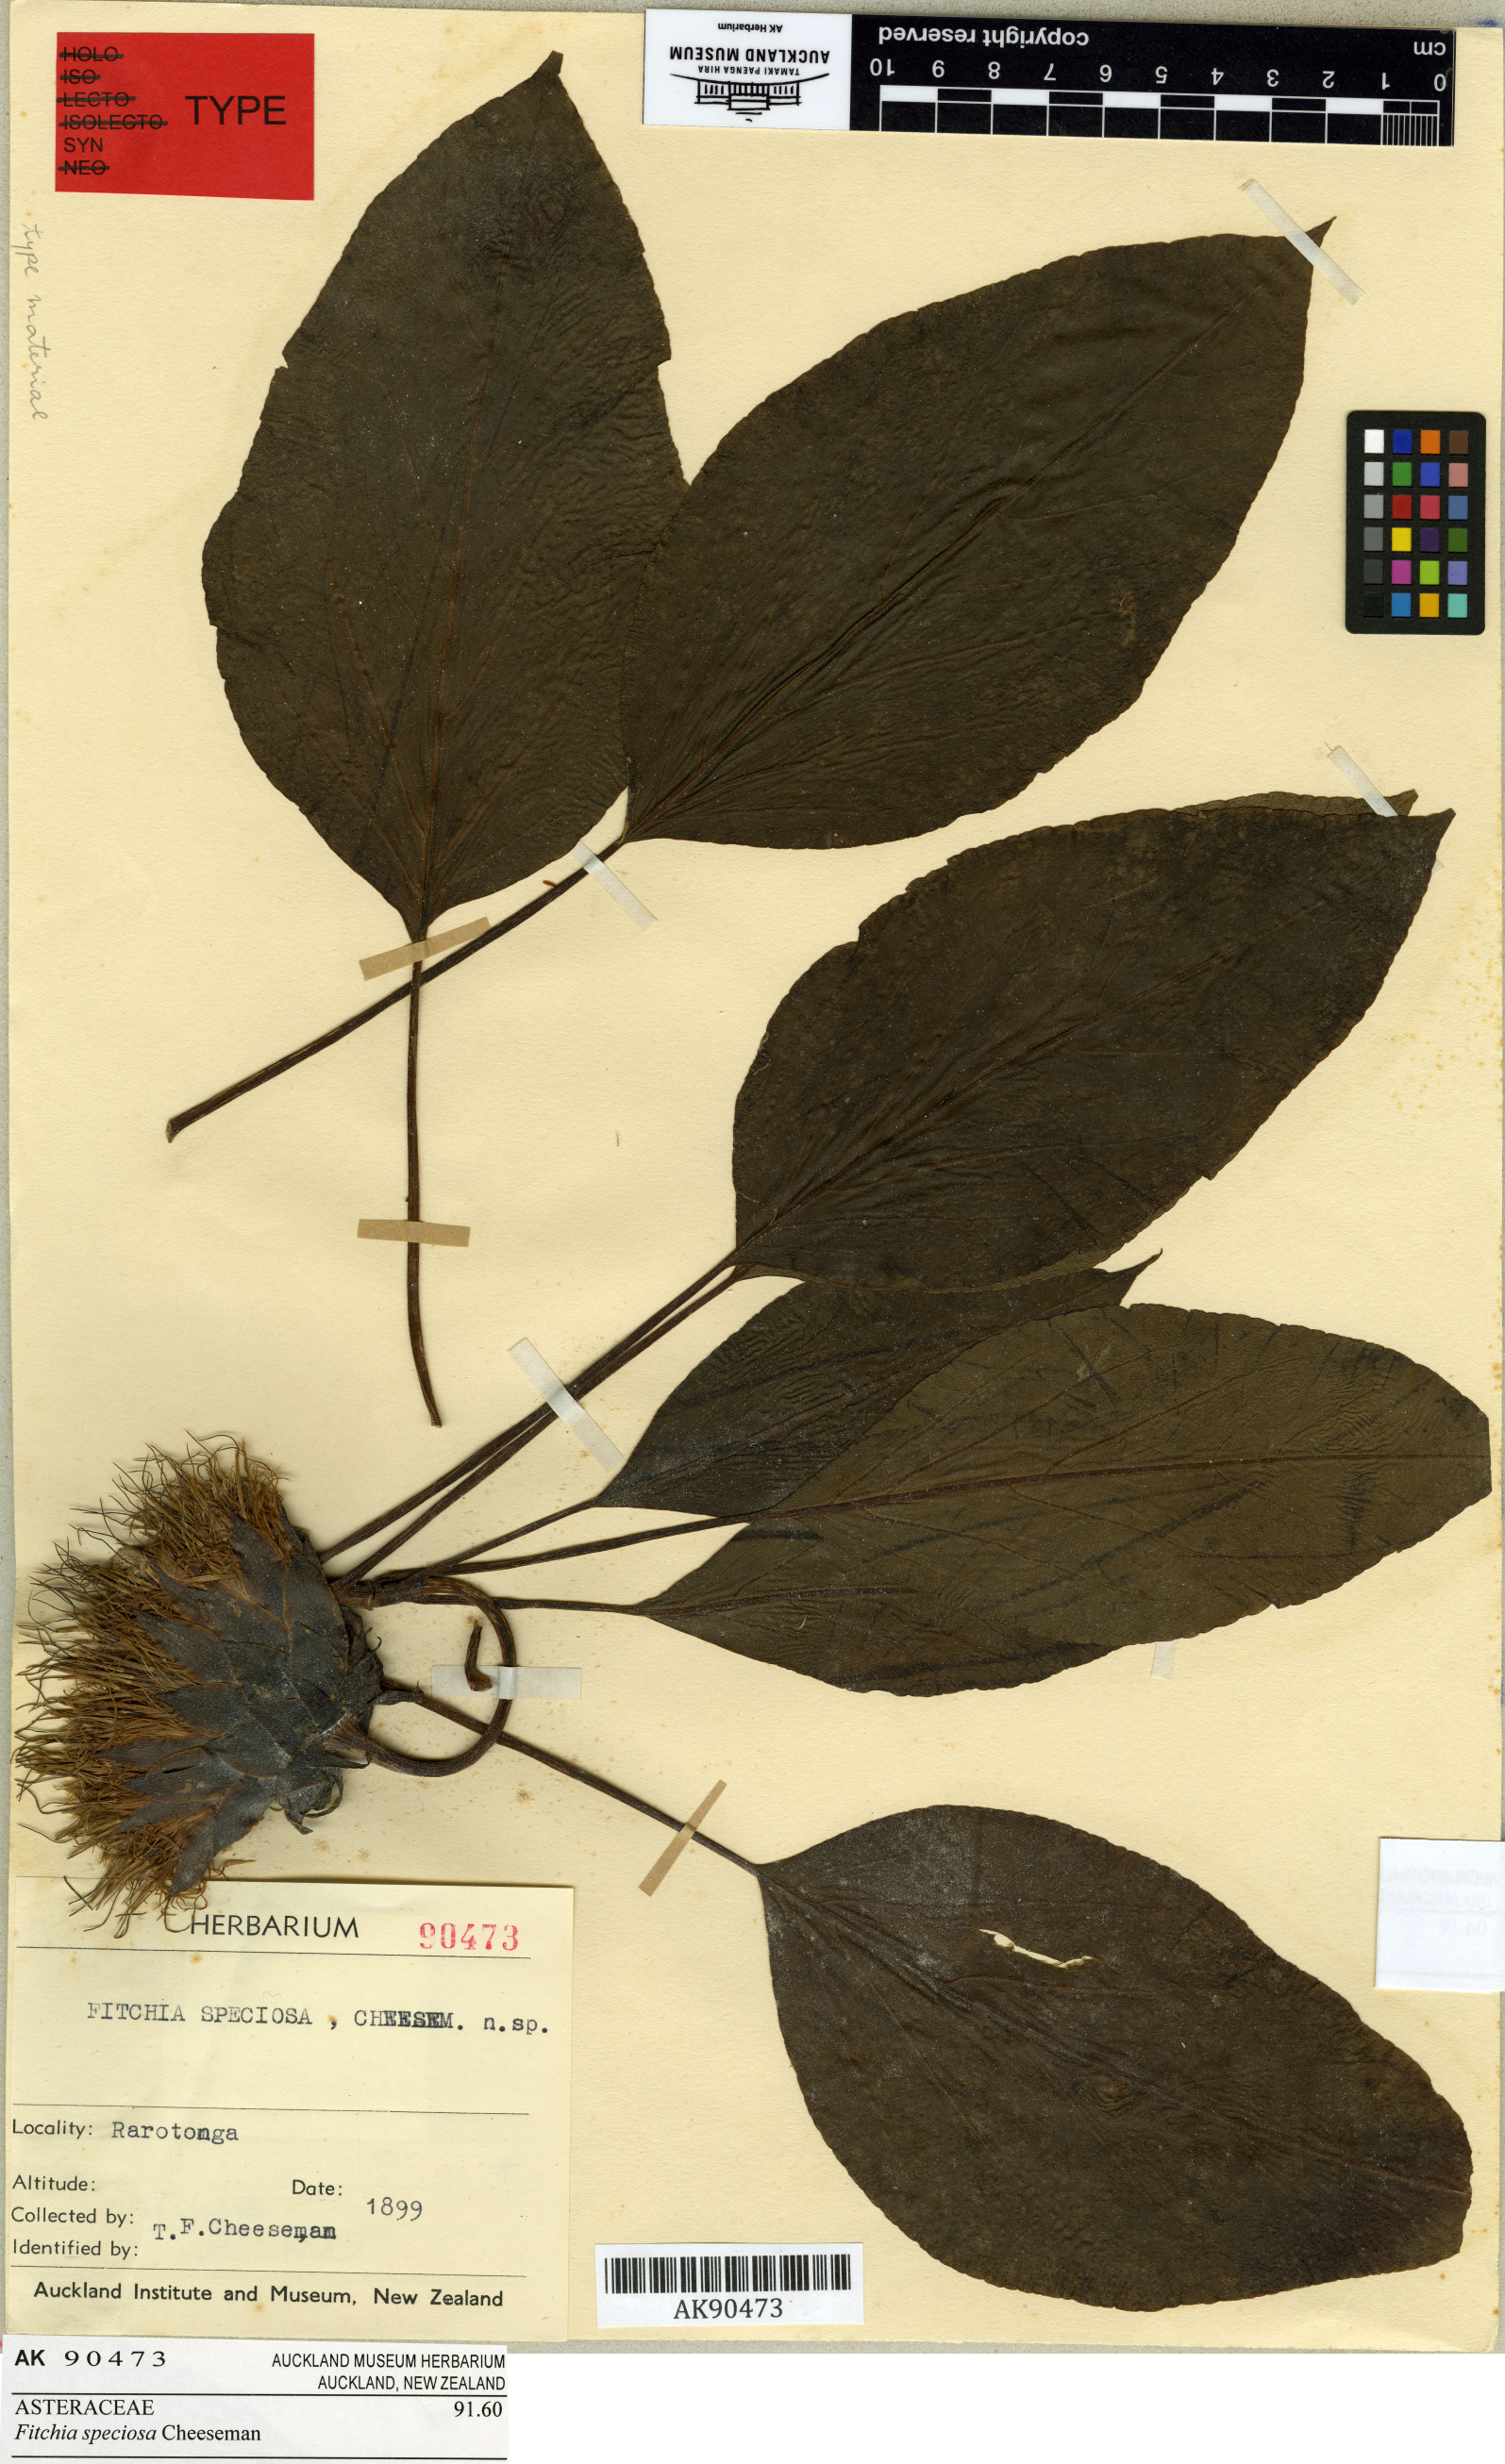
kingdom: Plantae
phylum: Tracheophyta
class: Magnoliopsida
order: Asterales
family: Asteraceae
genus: Fitchia
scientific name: Fitchia speciosa
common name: Burr daisytree
